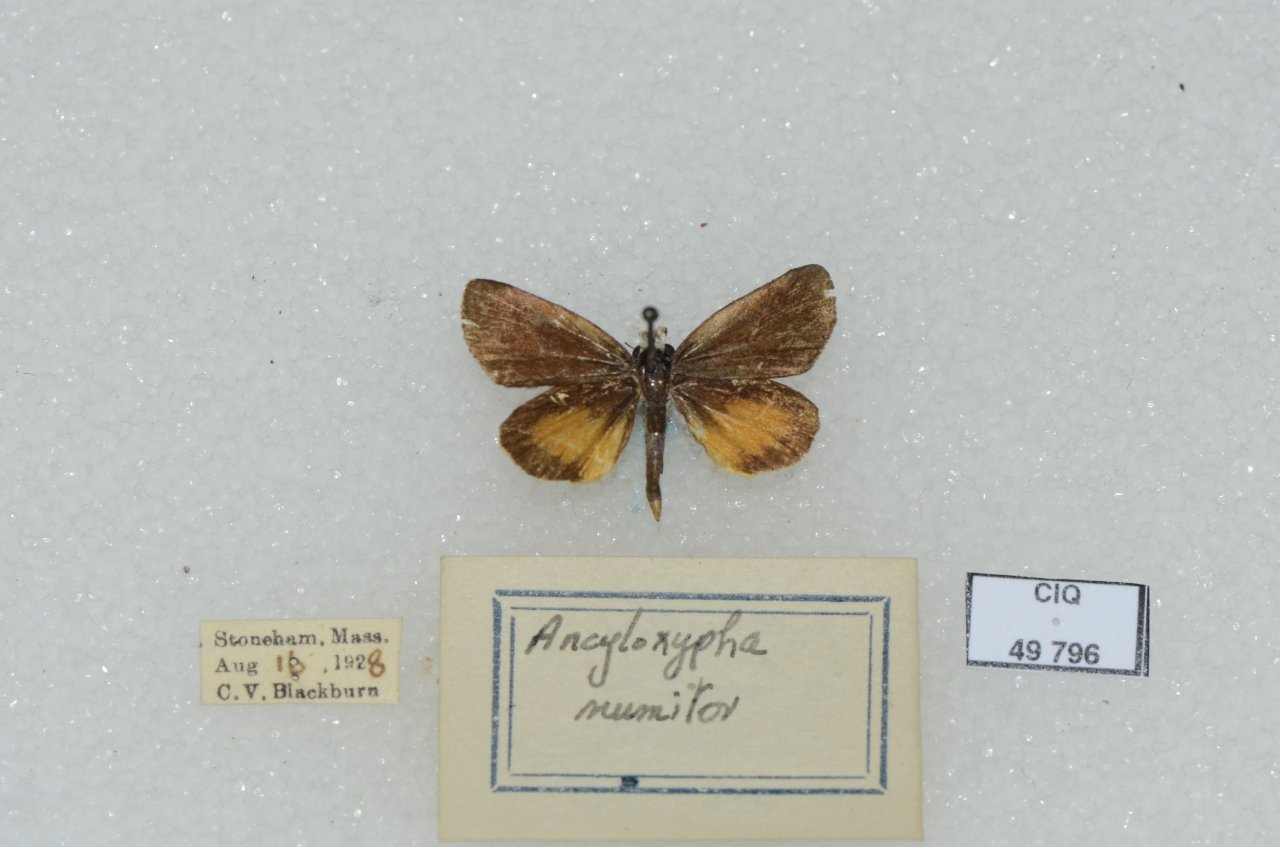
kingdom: Animalia
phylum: Arthropoda
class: Insecta
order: Lepidoptera
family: Hesperiidae
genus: Ancyloxypha
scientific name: Ancyloxypha numitor
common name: Least Skipper
